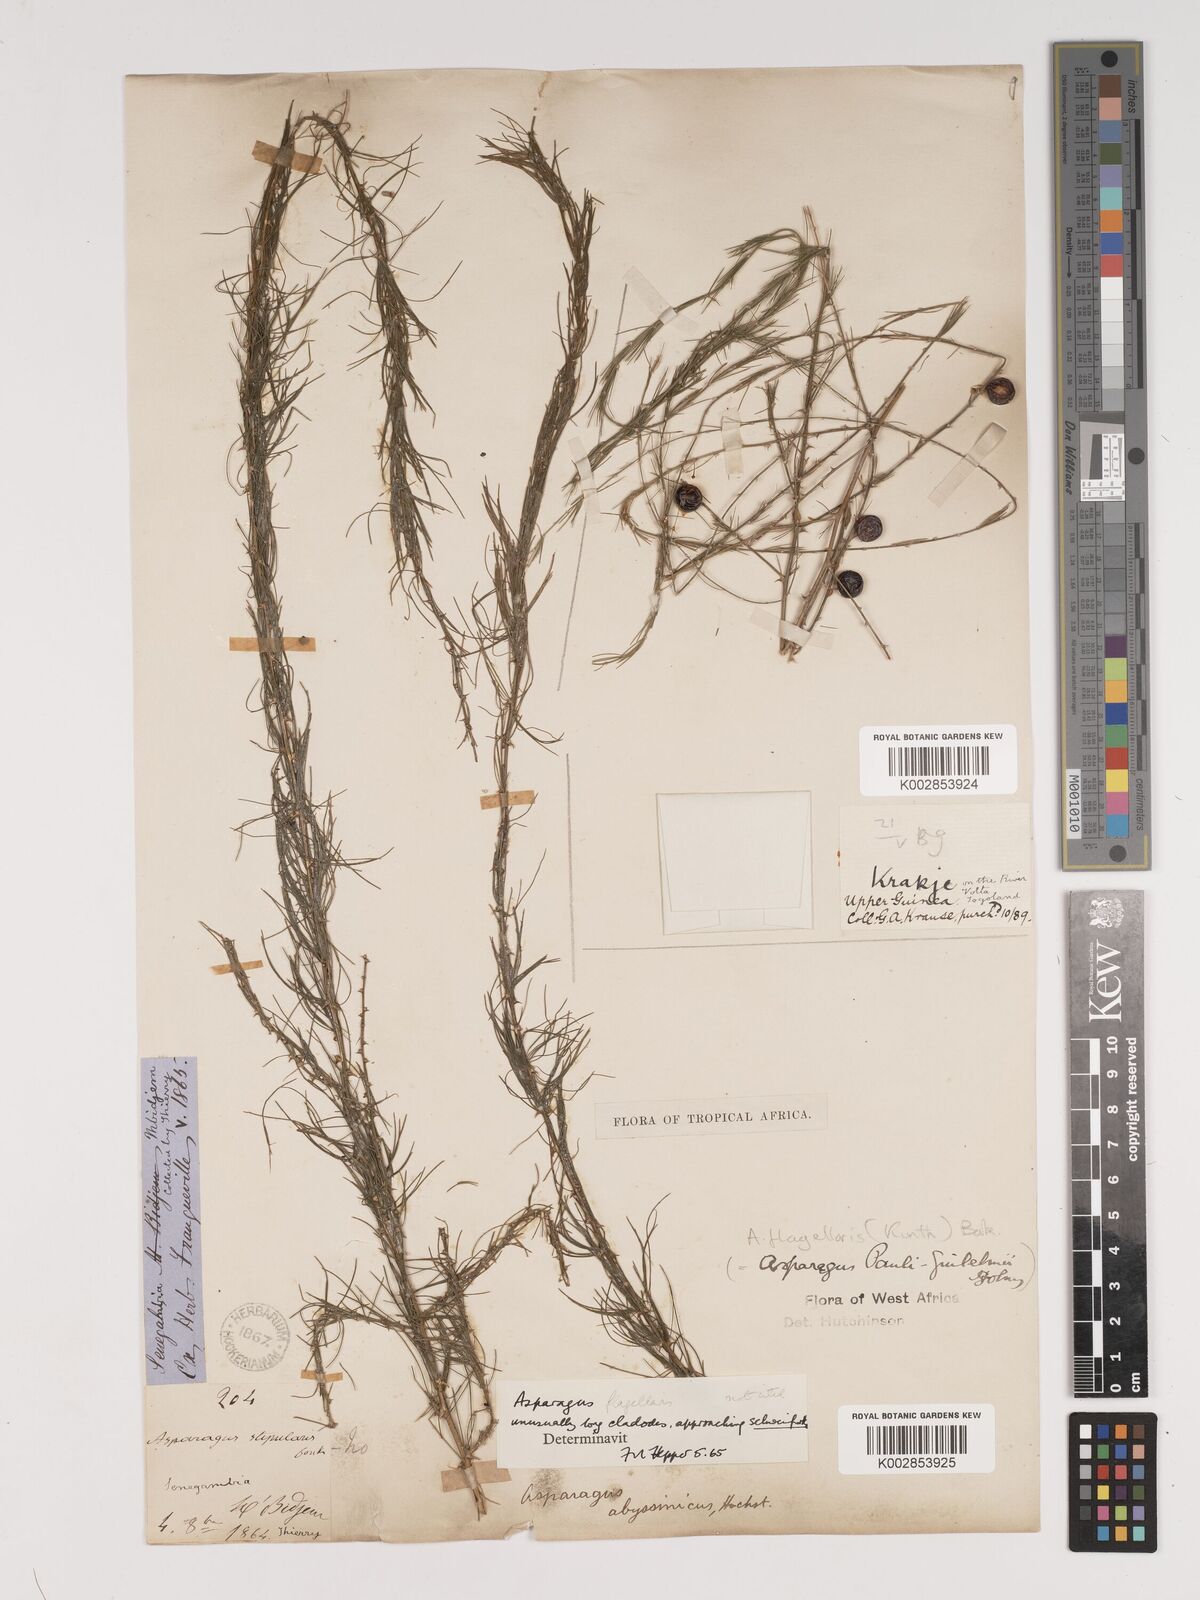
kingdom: Plantae
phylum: Tracheophyta
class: Liliopsida
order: Asparagales
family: Asparagaceae
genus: Asparagus
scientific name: Asparagus flagellaris
